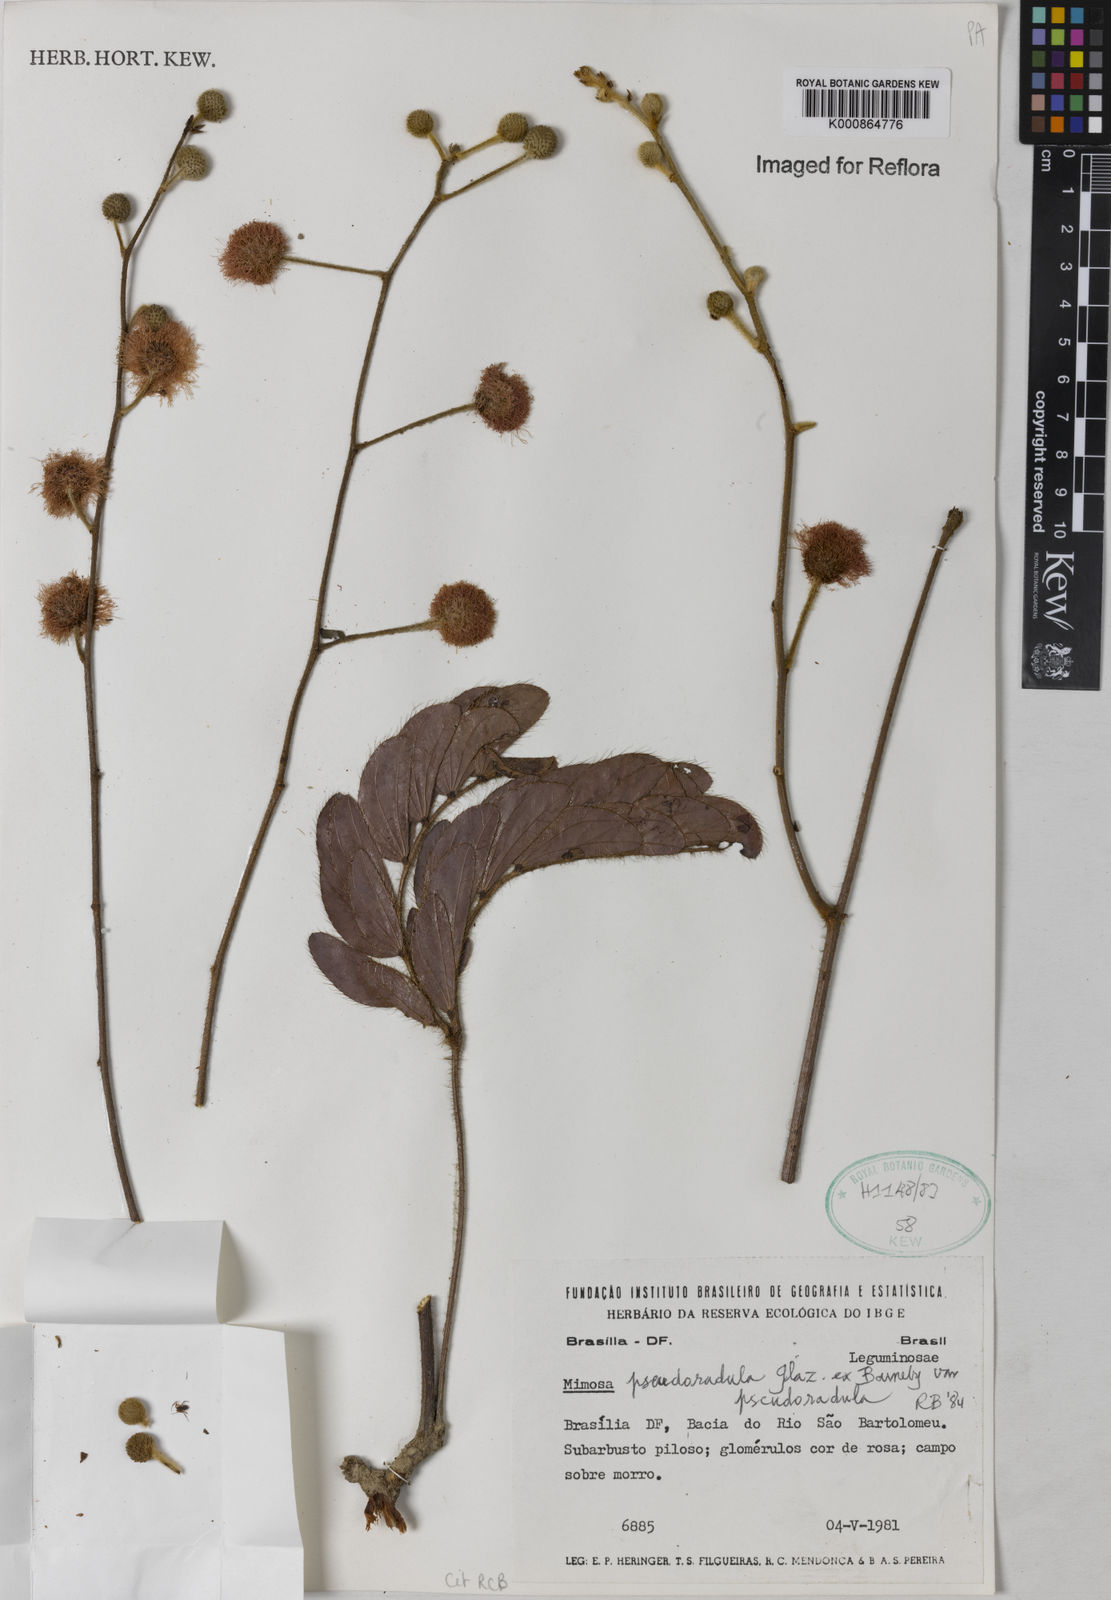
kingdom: Plantae
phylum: Tracheophyta
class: Magnoliopsida
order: Fabales
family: Fabaceae
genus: Mimosa
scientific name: Mimosa pseudoradula
